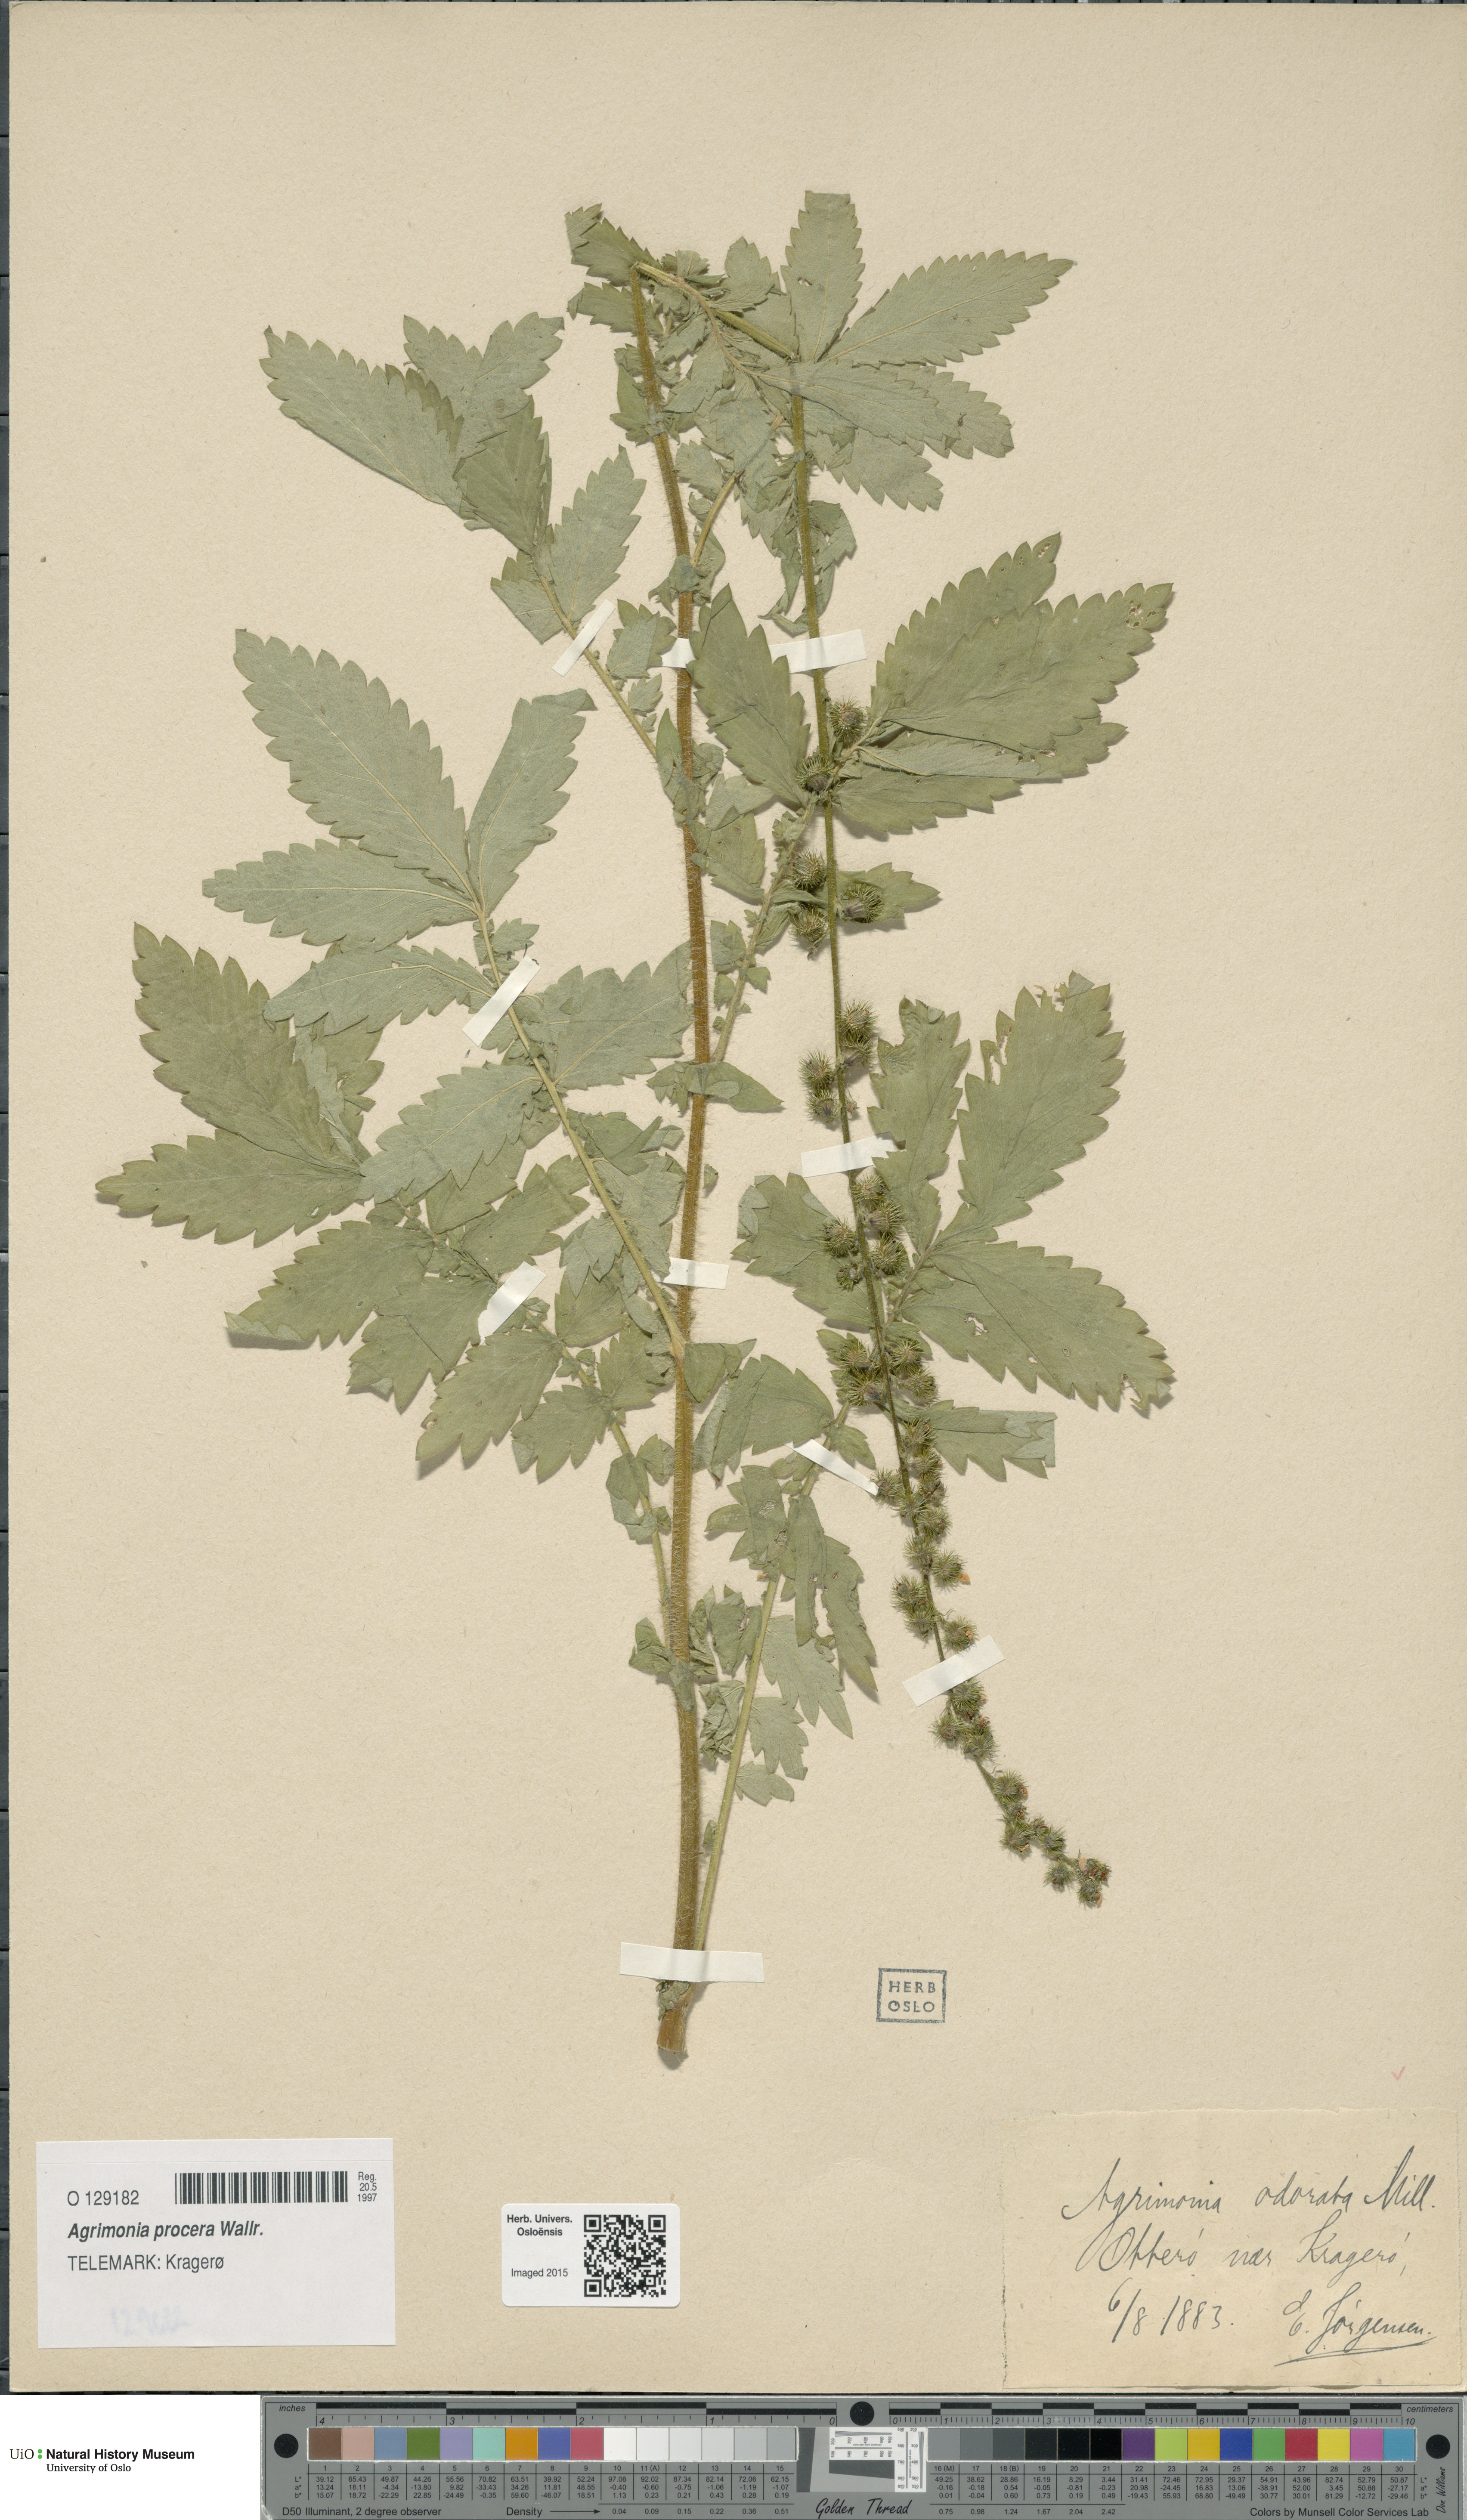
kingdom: Plantae
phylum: Tracheophyta
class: Magnoliopsida
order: Rosales
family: Rosaceae
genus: Agrimonia
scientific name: Agrimonia procera
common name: Fragrant agrimony
